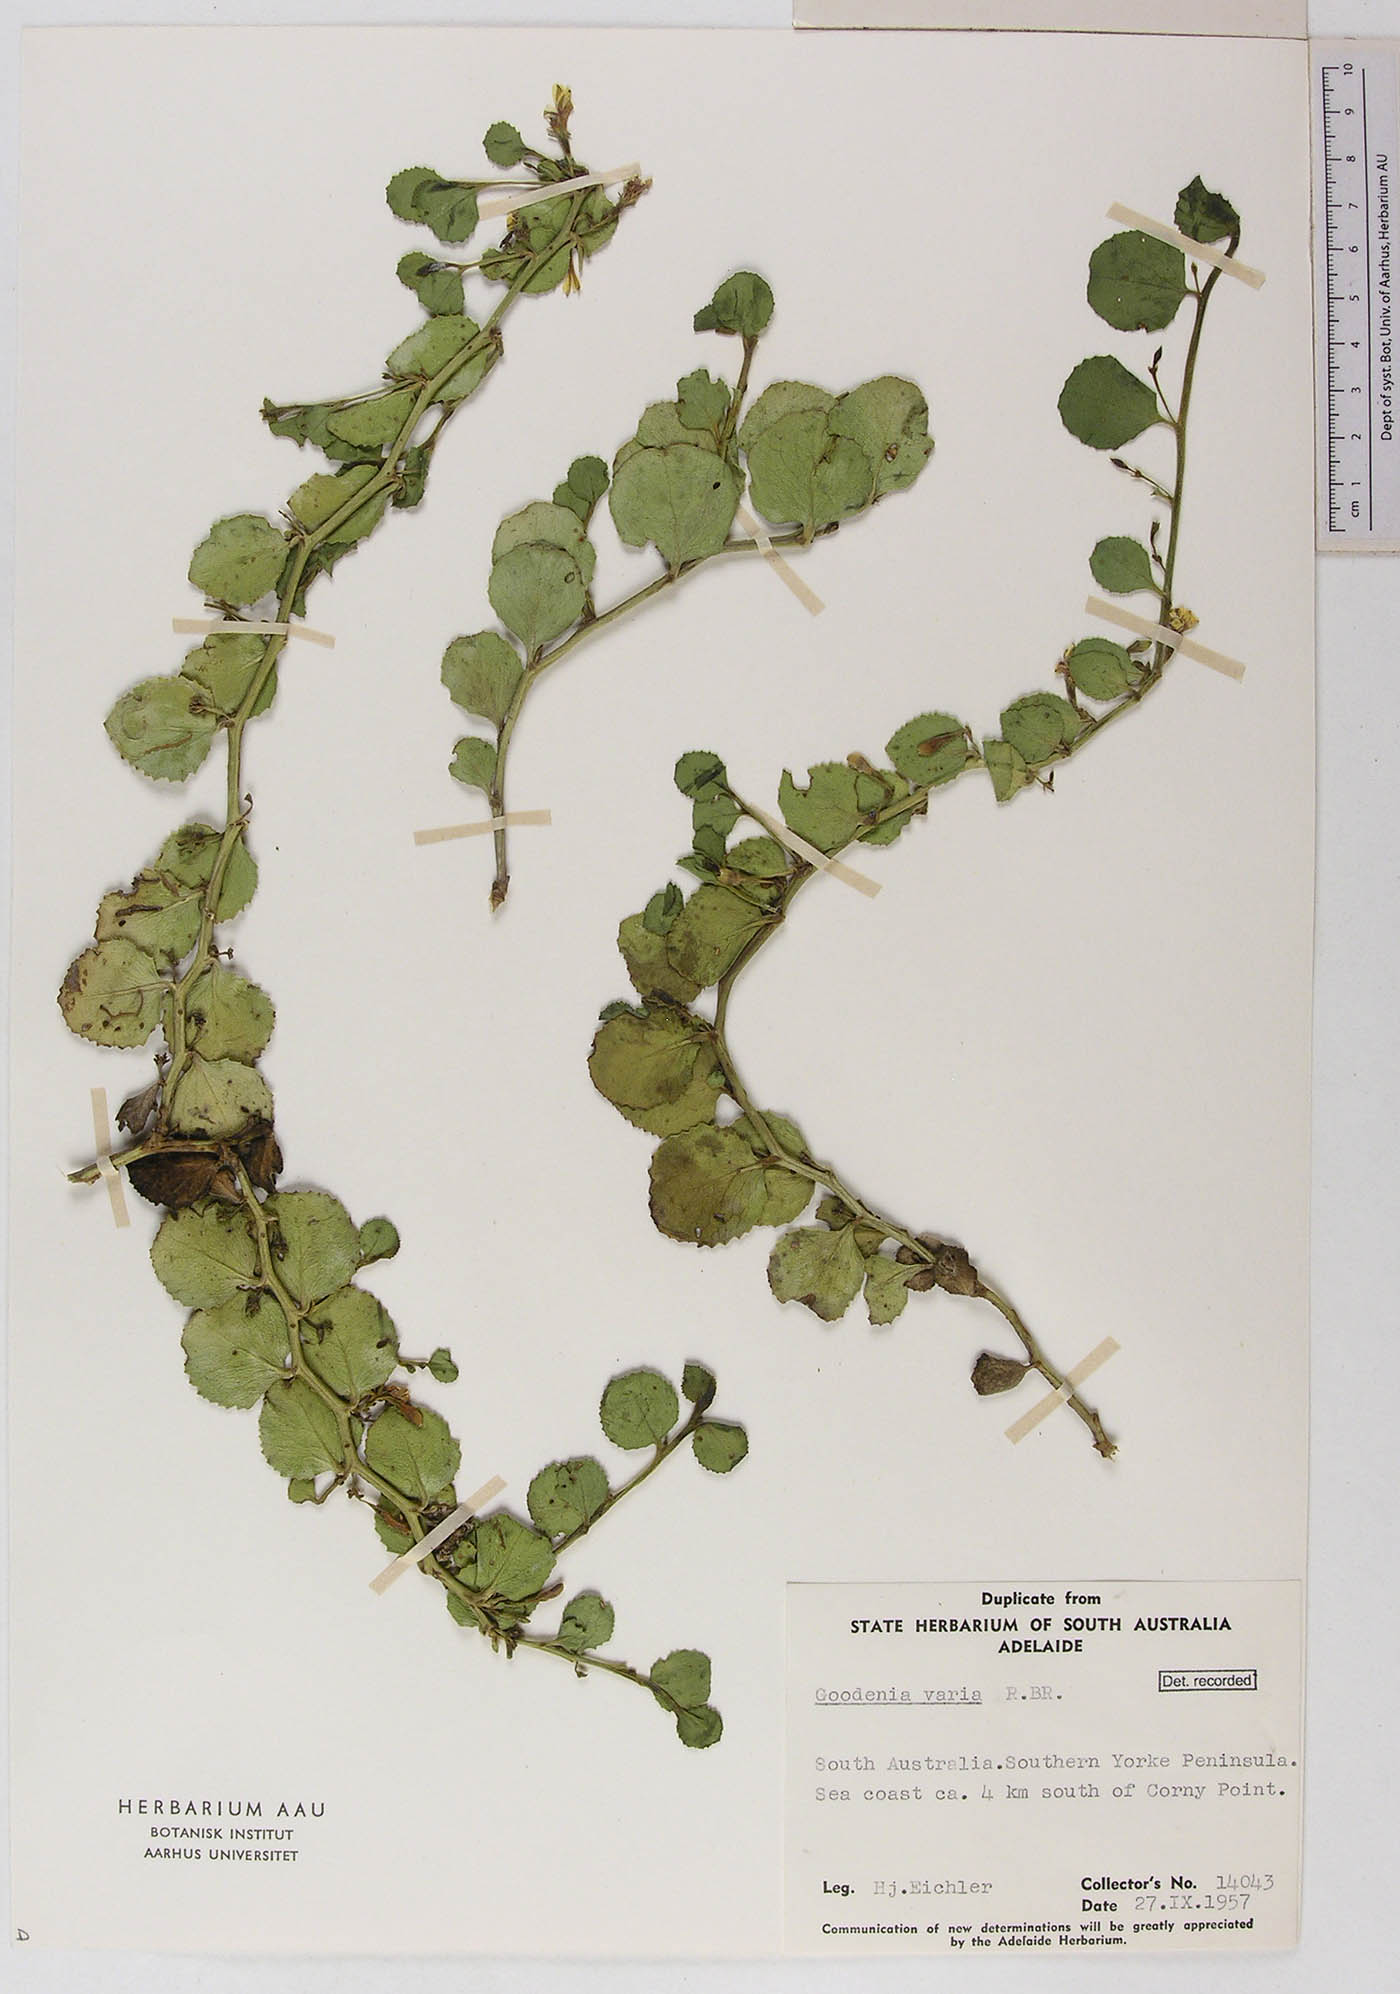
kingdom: Plantae
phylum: Tracheophyta
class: Magnoliopsida
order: Asterales
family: Goodeniaceae
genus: Goodenia
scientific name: Goodenia varia
